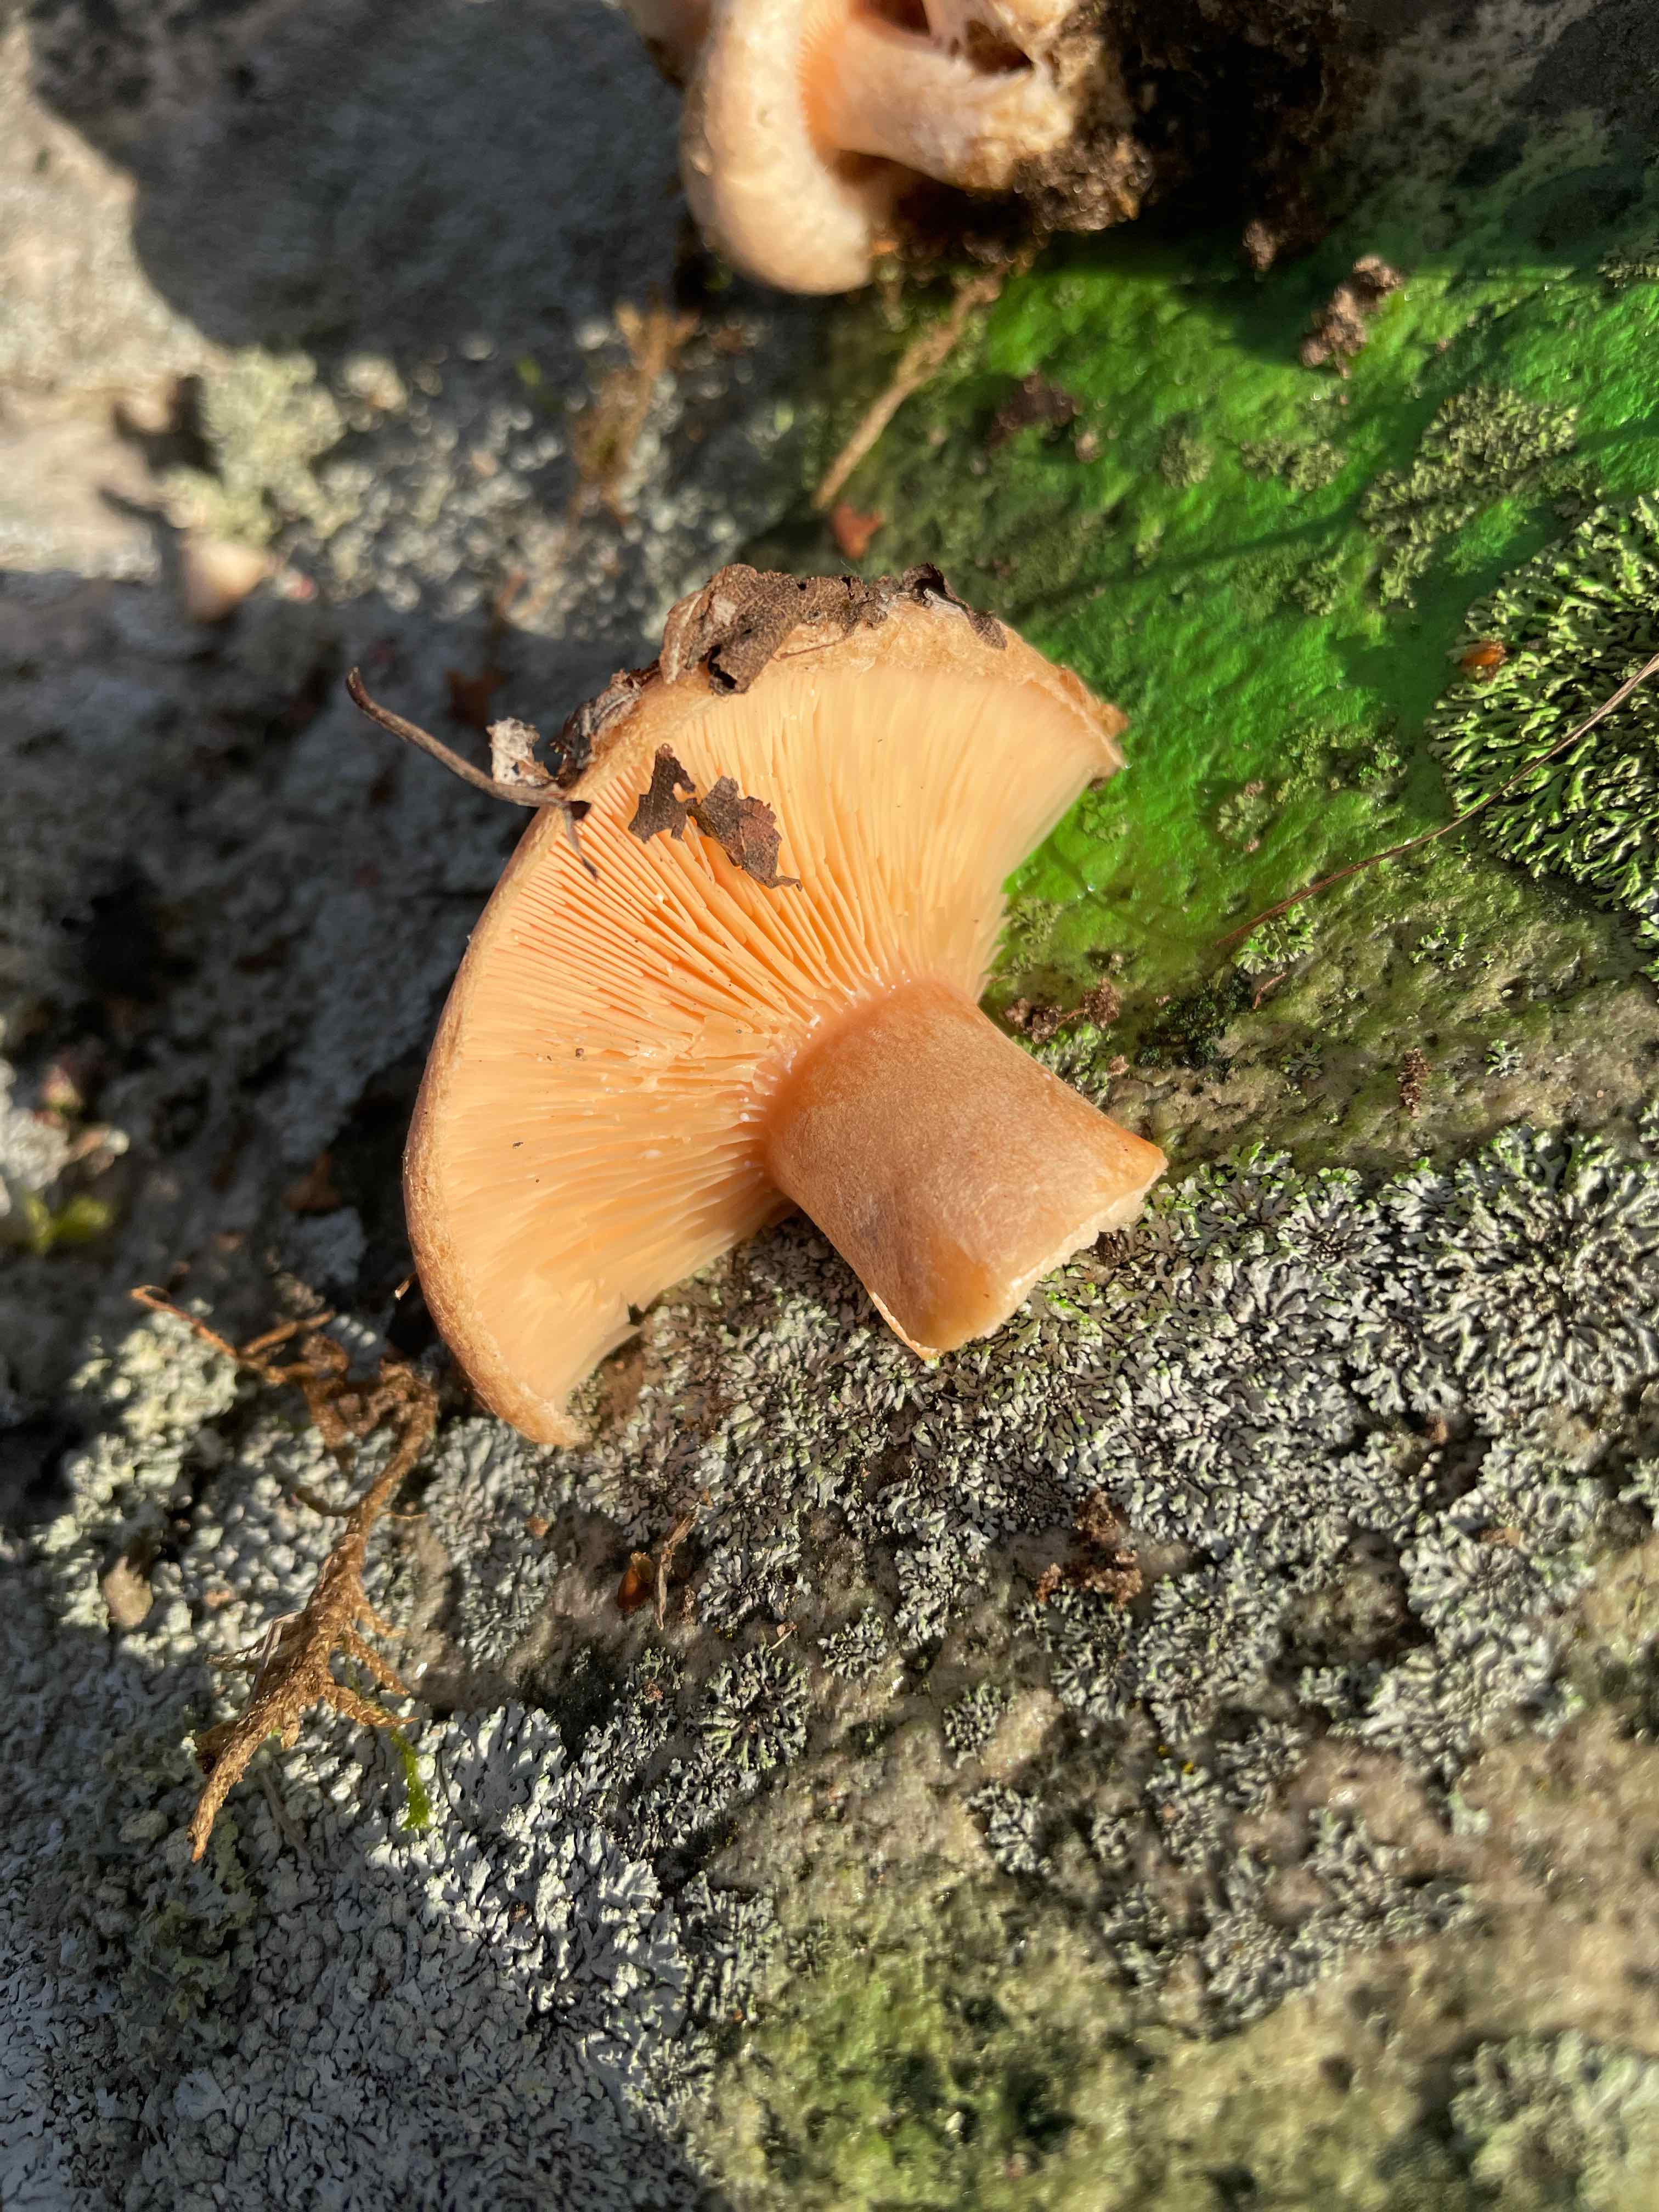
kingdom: Fungi
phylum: Basidiomycota
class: Agaricomycetes
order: Russulales
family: Russulaceae
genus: Lactarius
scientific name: Lactarius torminosus
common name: skægget mælkehat
